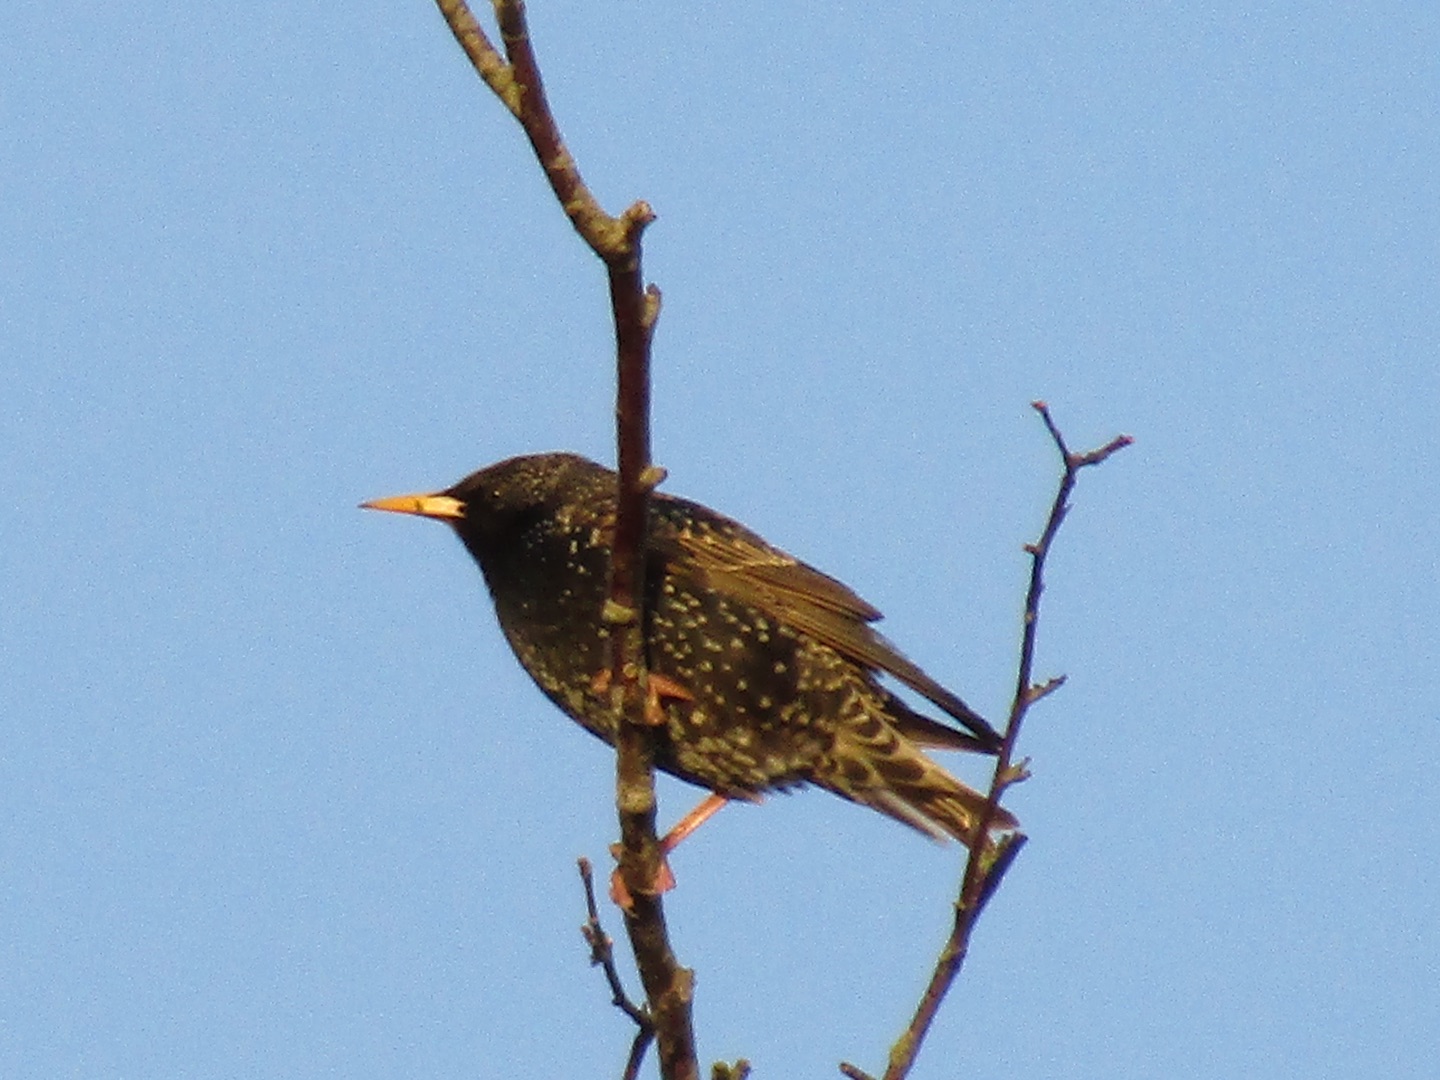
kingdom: Animalia
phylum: Chordata
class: Aves
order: Passeriformes
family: Sturnidae
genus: Sturnus
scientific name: Sturnus vulgaris
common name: Stær
